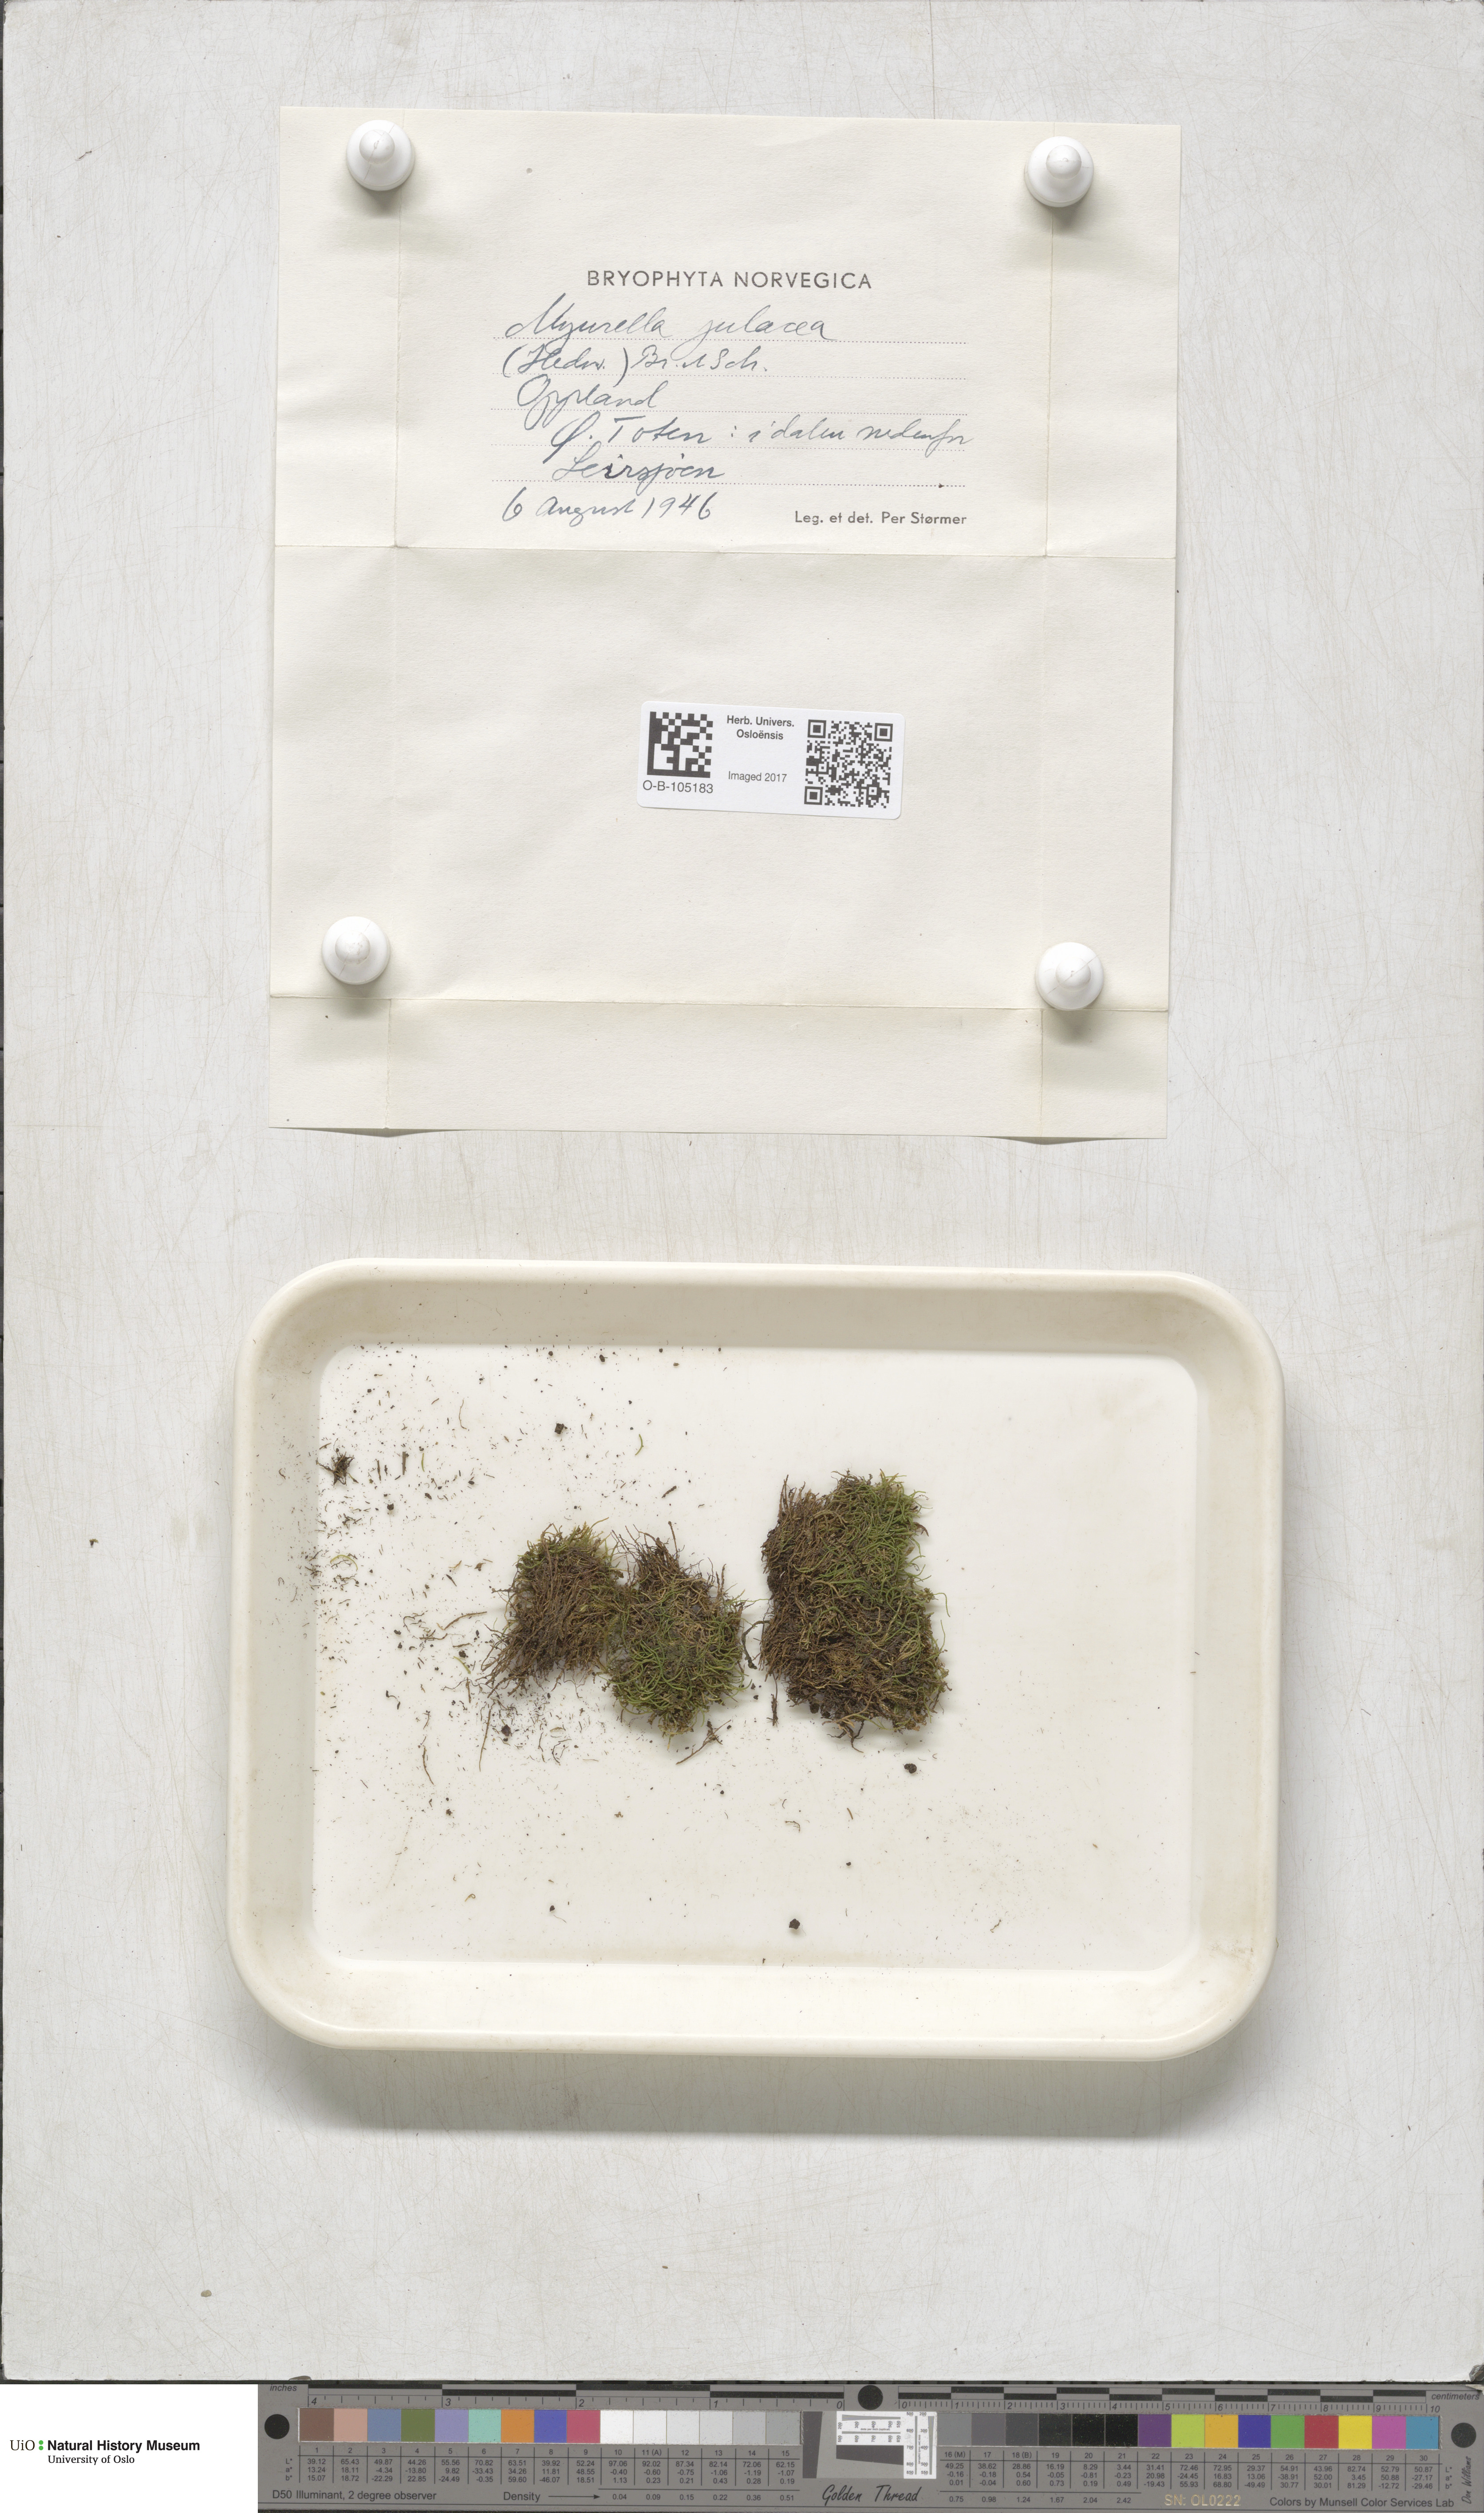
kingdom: Plantae
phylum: Bryophyta
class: Bryopsida
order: Hypnales
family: Plagiotheciaceae
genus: Myurella
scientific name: Myurella julacea
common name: Small mousetail moss
